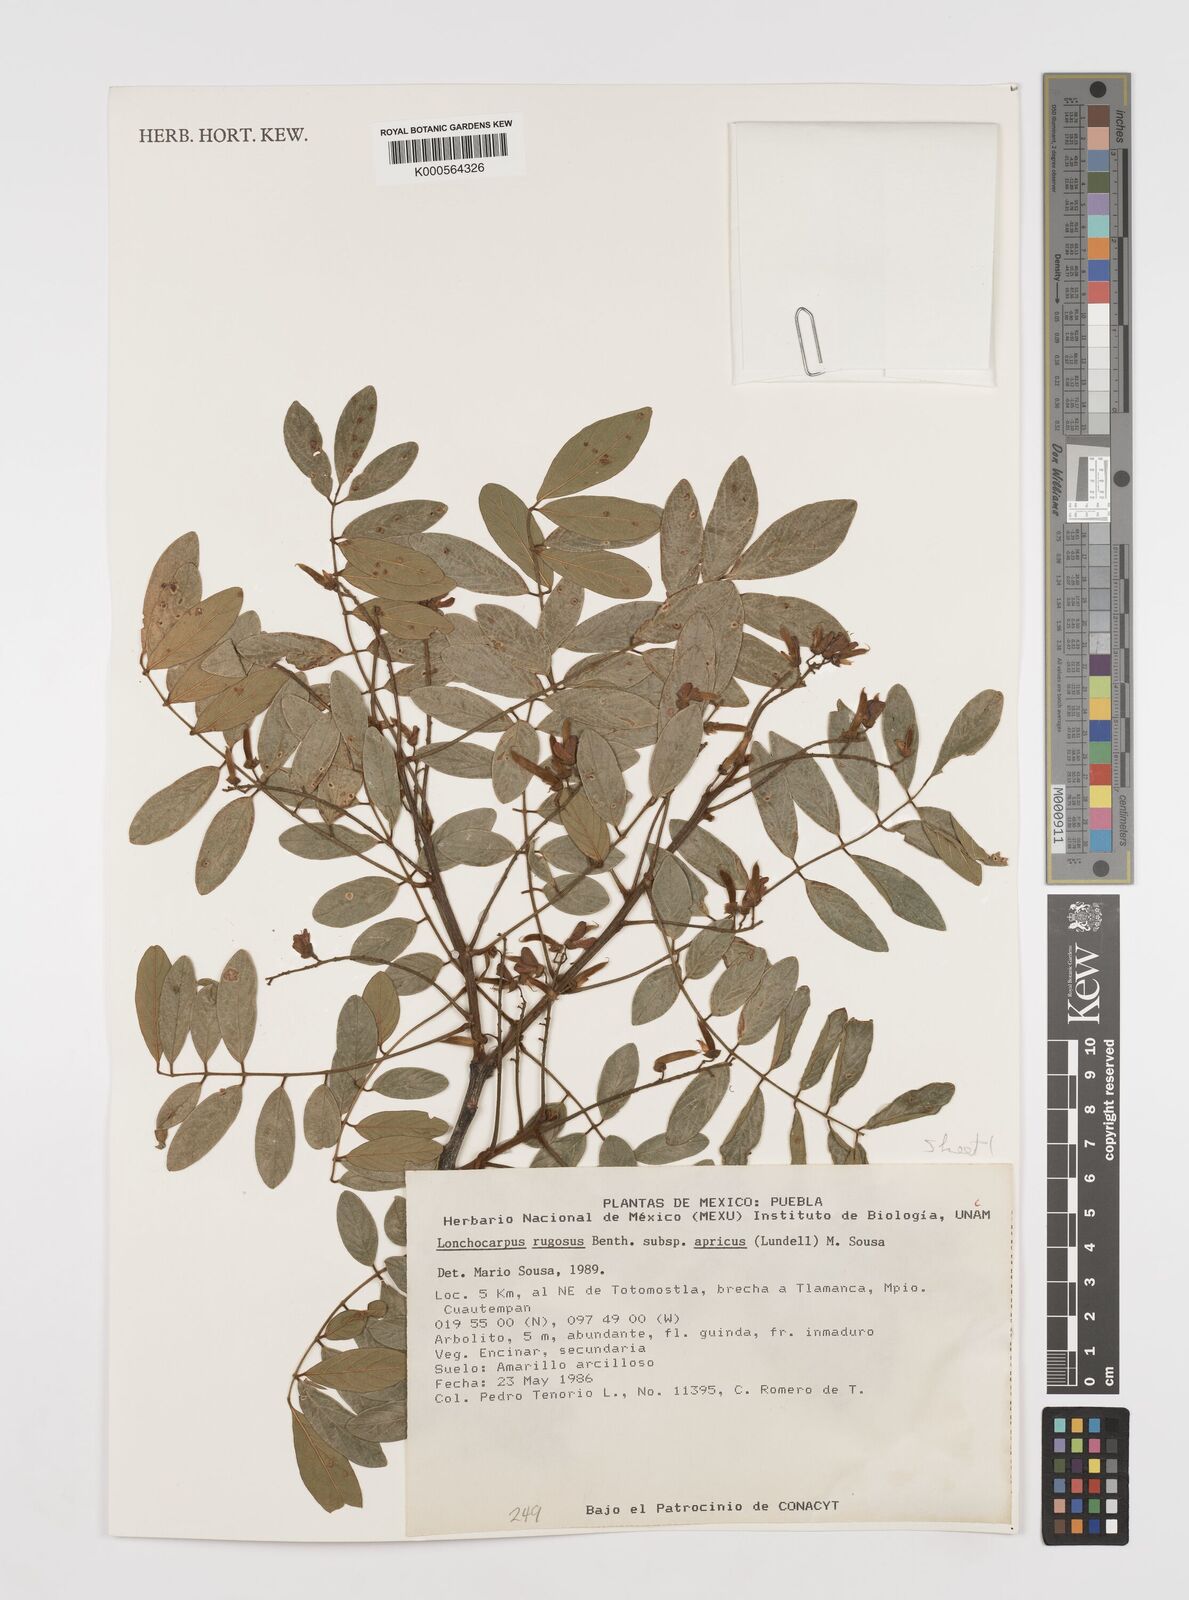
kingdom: Plantae
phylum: Tracheophyta
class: Magnoliopsida
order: Fabales
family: Fabaceae
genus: Lonchocarpus
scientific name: Lonchocarpus rugosus
